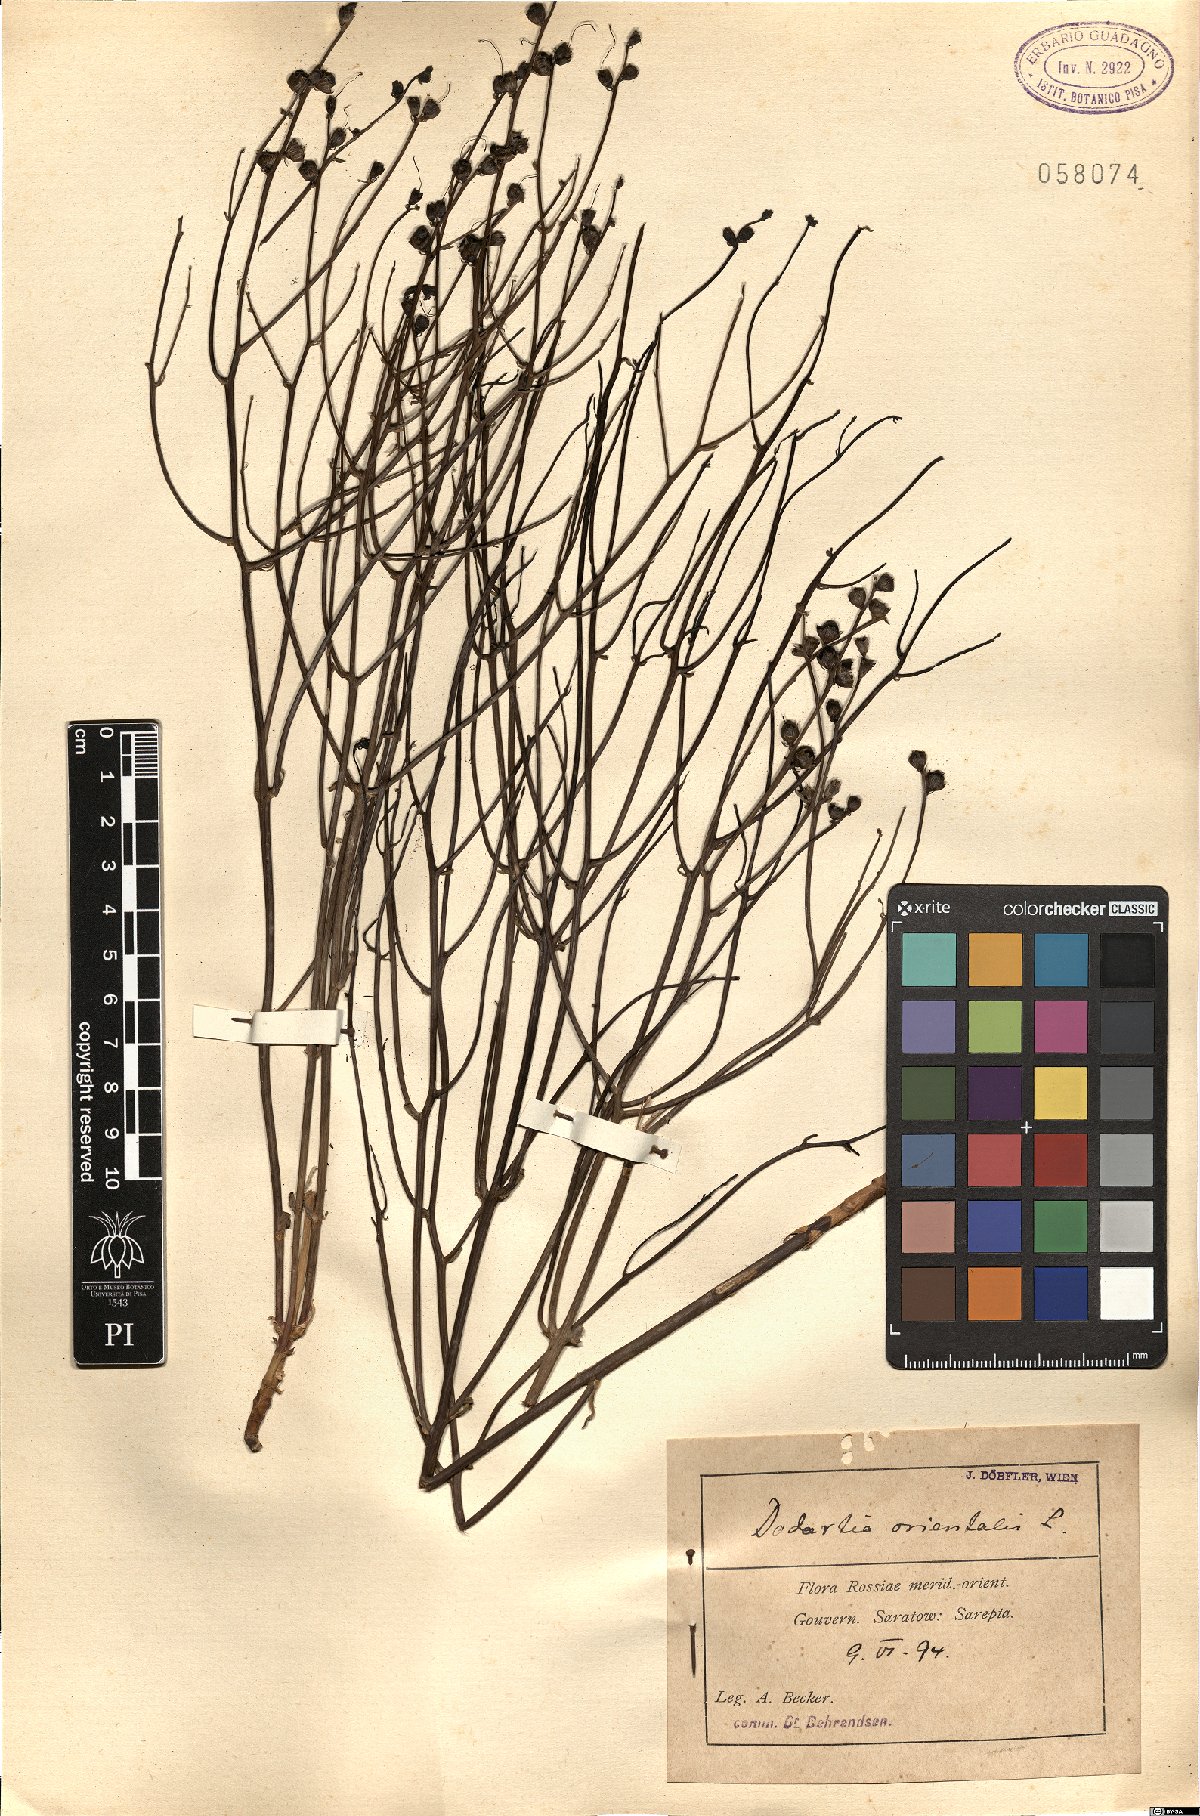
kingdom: Plantae
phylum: Tracheophyta
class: Magnoliopsida
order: Lamiales
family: Mazaceae
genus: Dodartia
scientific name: Dodartia orientalis
